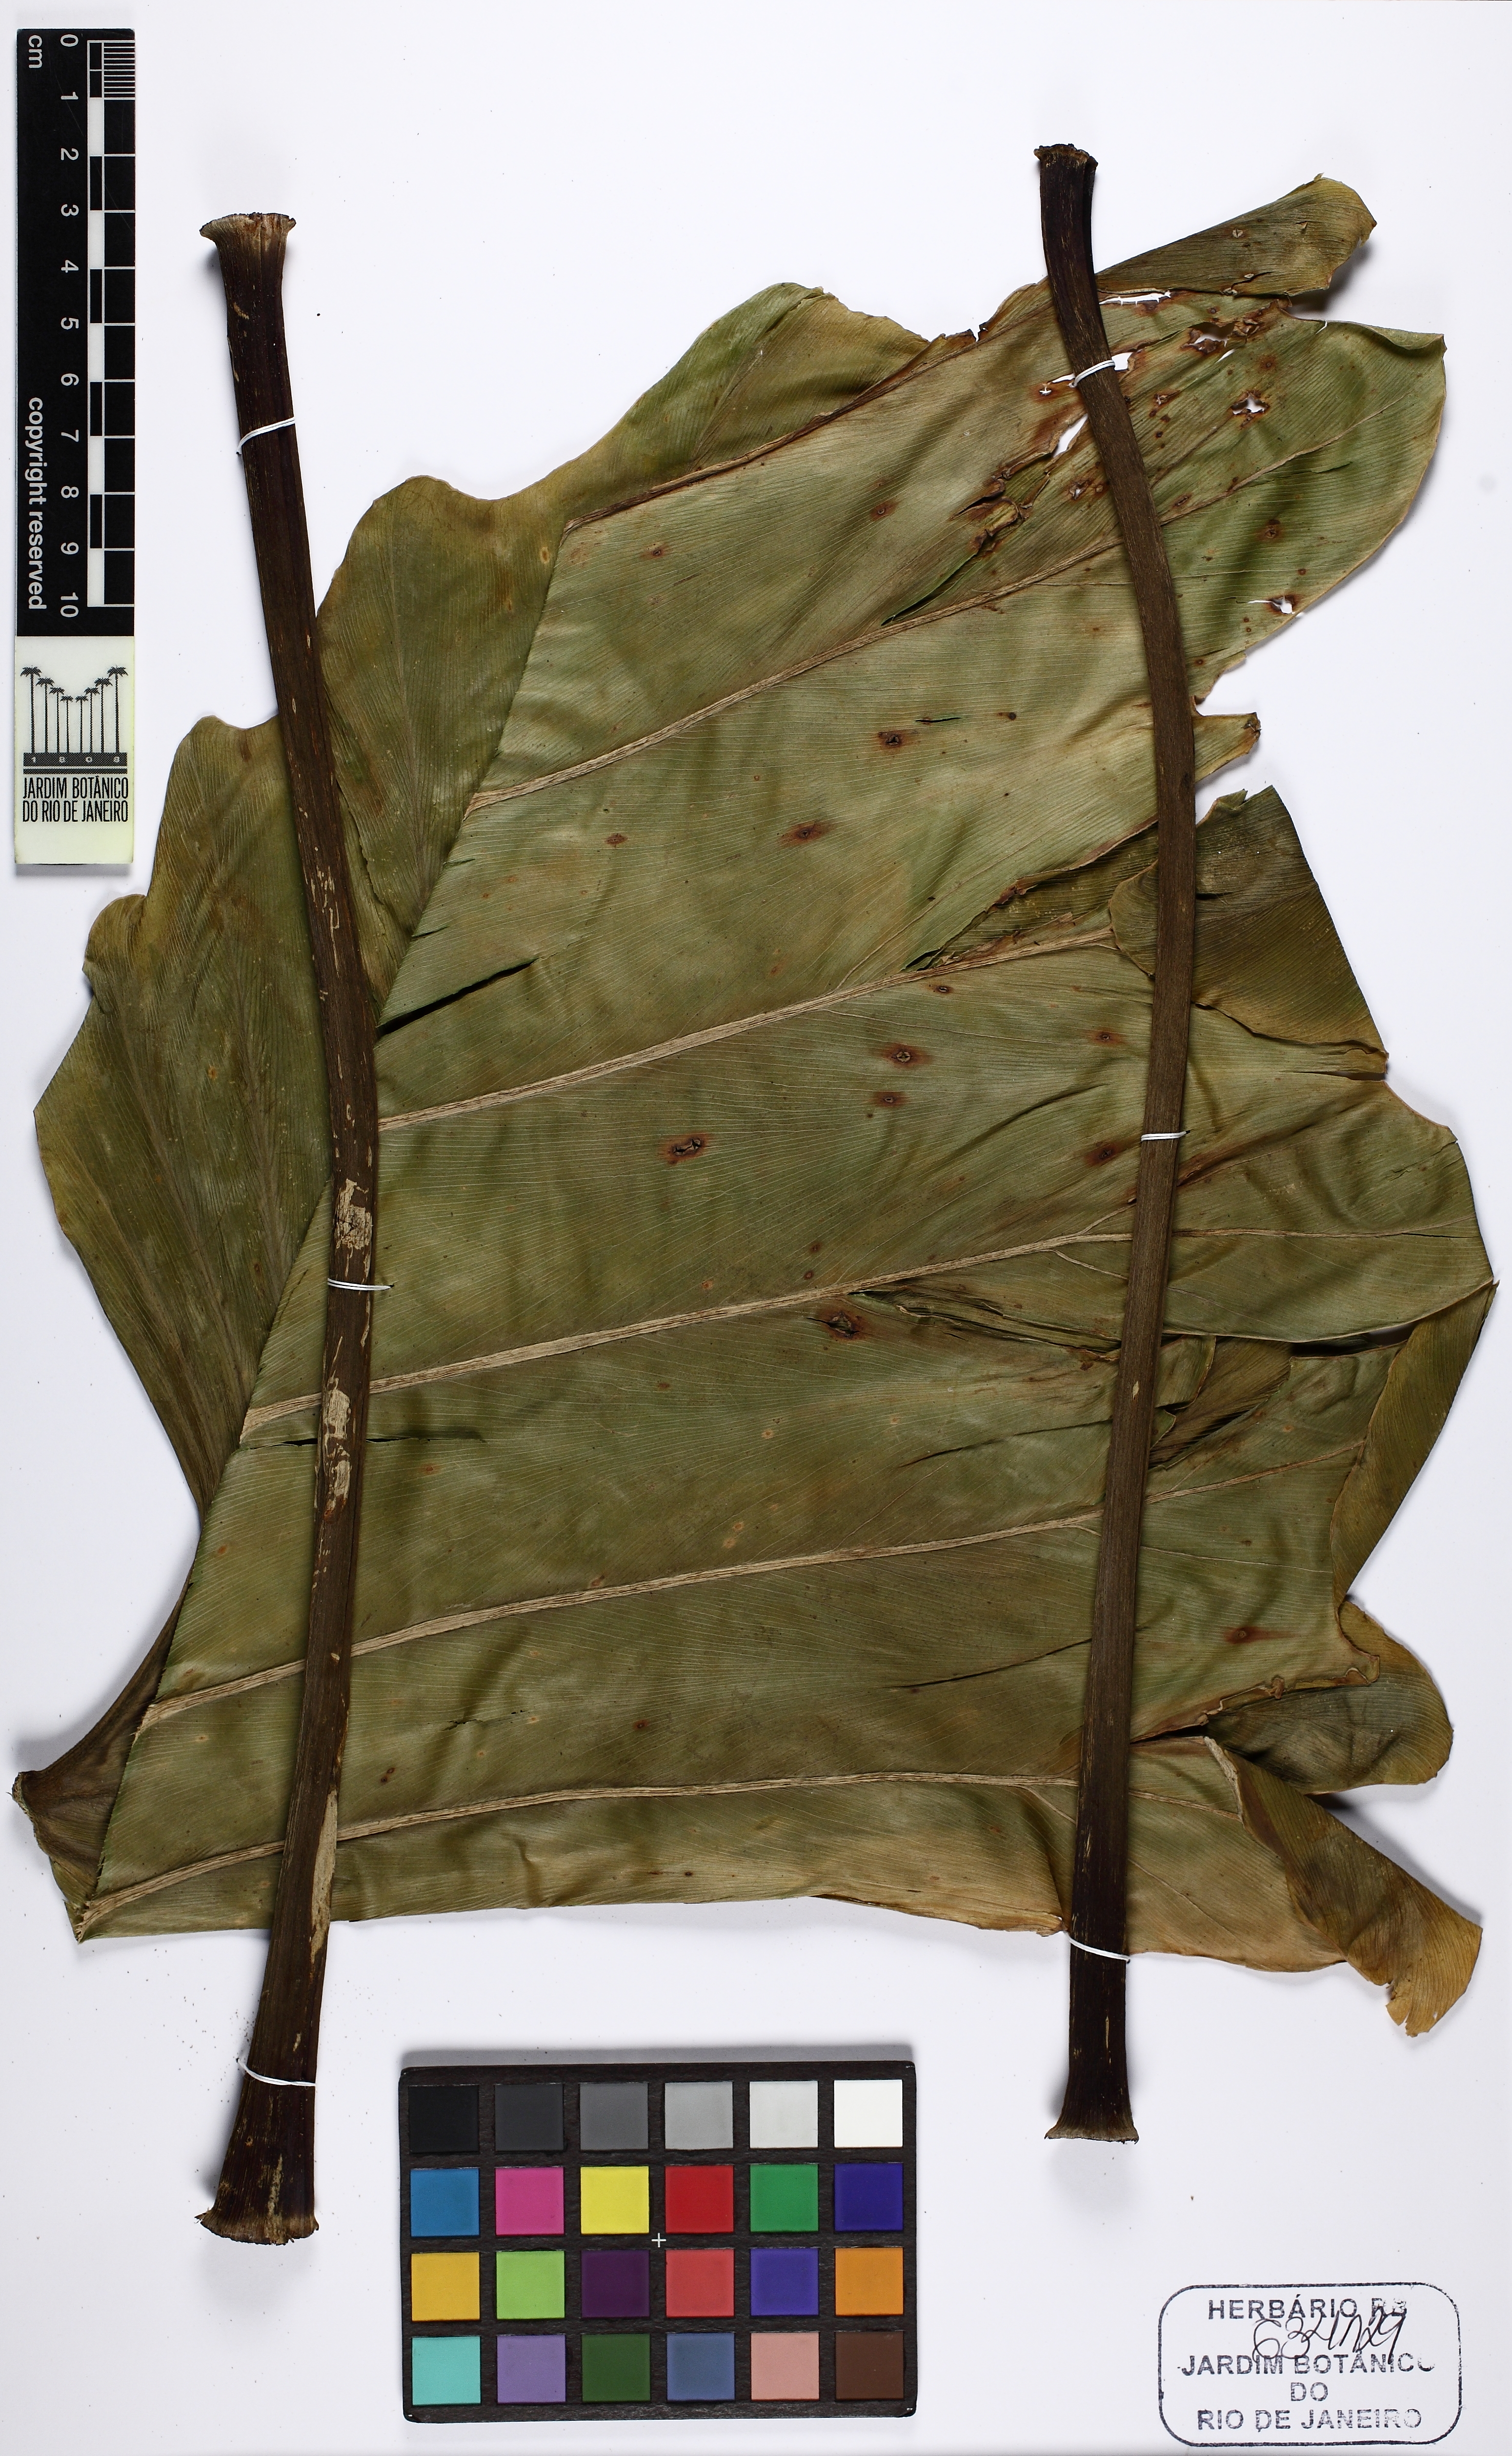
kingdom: Plantae
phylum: Tracheophyta
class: Liliopsida
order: Alismatales
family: Araceae
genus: Thaumatophyllum
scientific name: Thaumatophyllum undulatum
